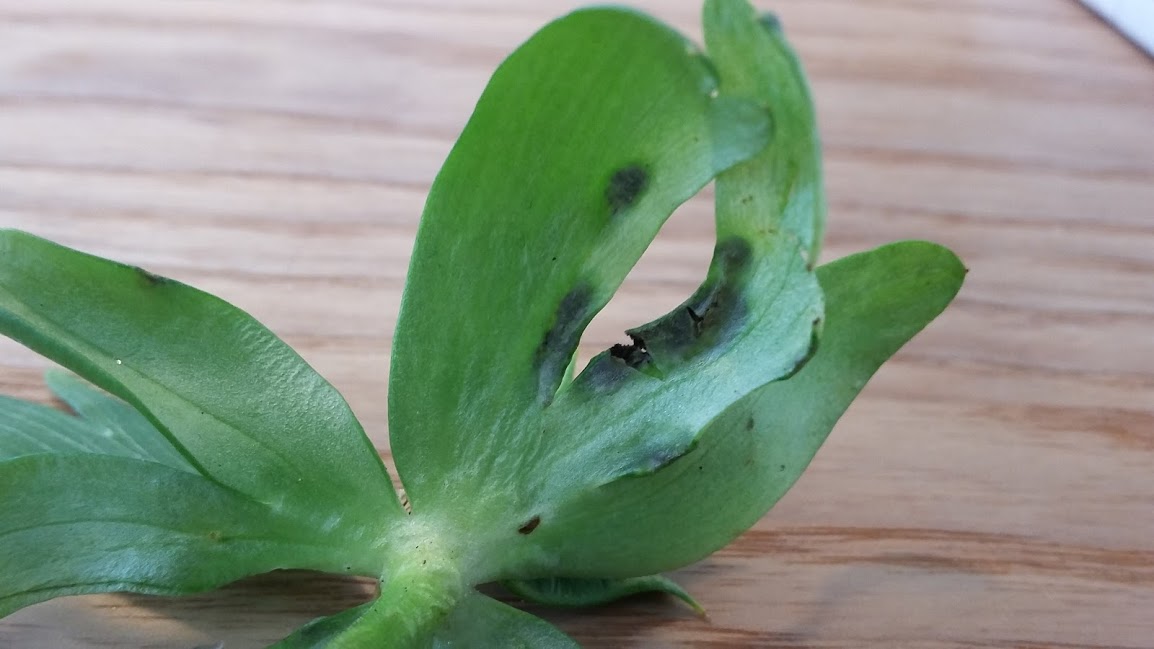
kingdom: Fungi
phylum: Basidiomycota
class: Ustilaginomycetes
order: Urocystidales
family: Urocystidaceae
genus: Urocystis
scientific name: Urocystis eranthidis
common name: erantis-brand
